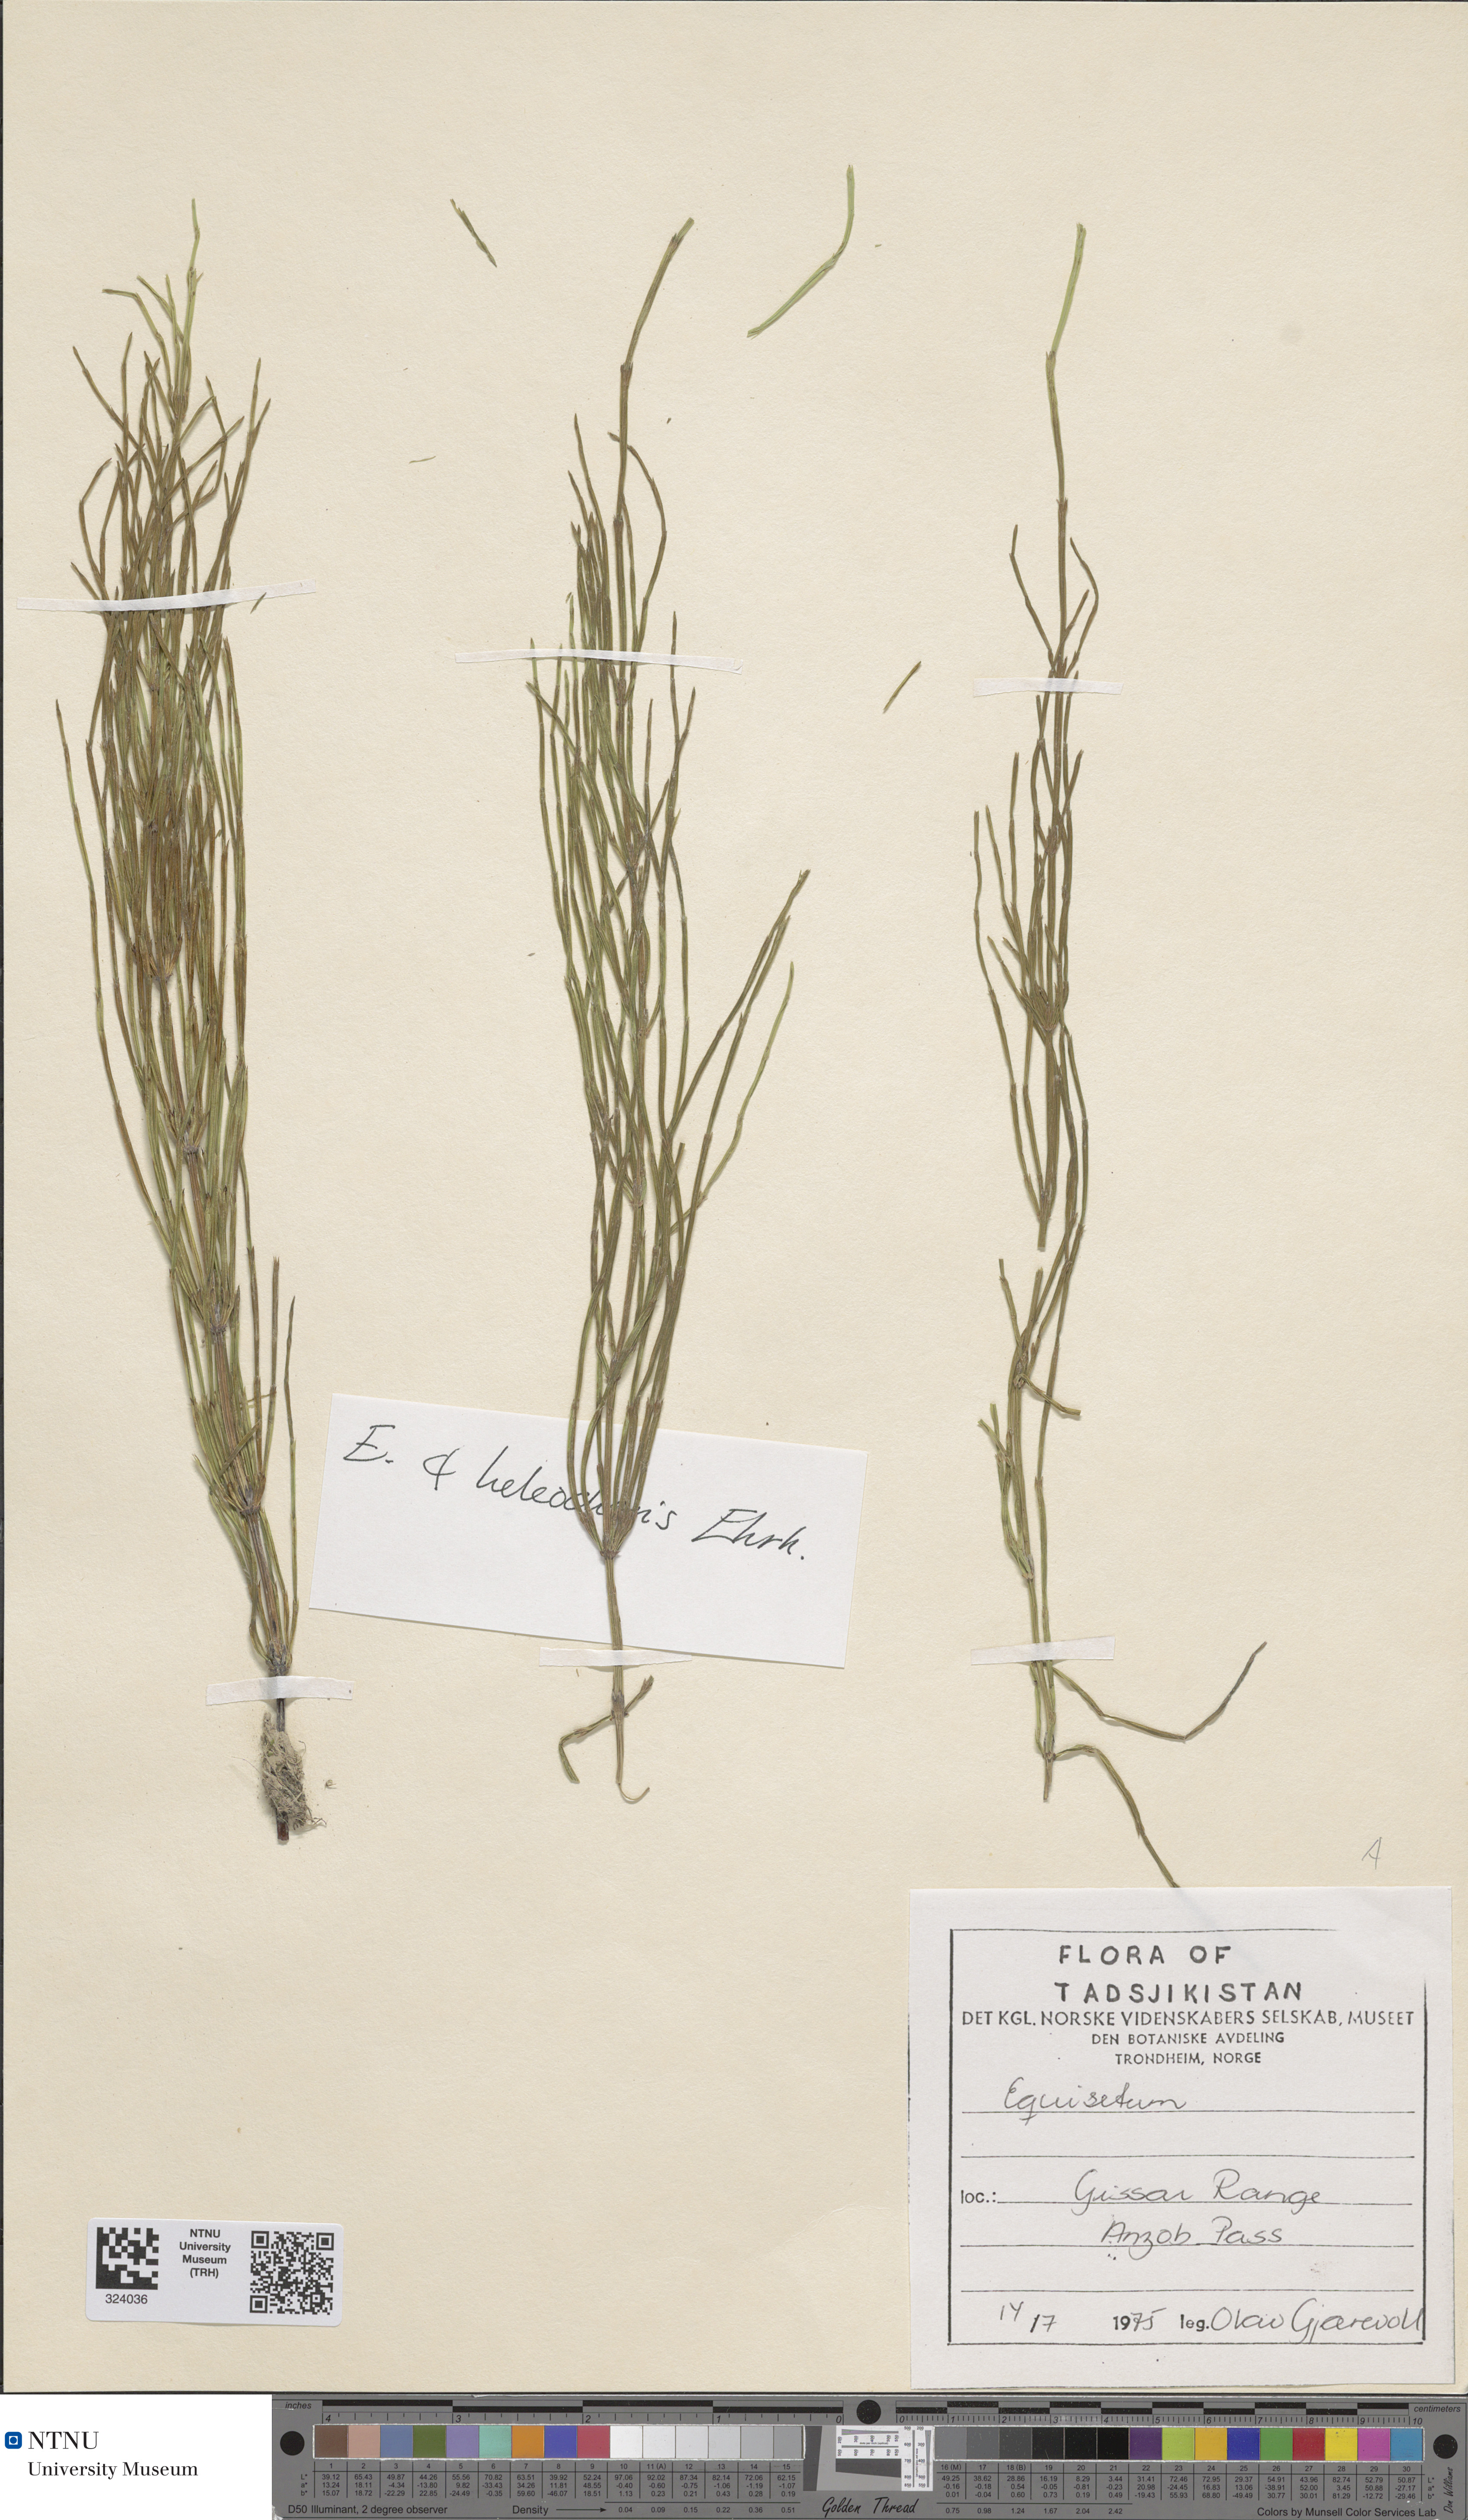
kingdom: Plantae
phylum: Tracheophyta
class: Polypodiopsida
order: Equisetales
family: Equisetaceae
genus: Equisetum
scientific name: Equisetum fluviatile
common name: Water horsetail
